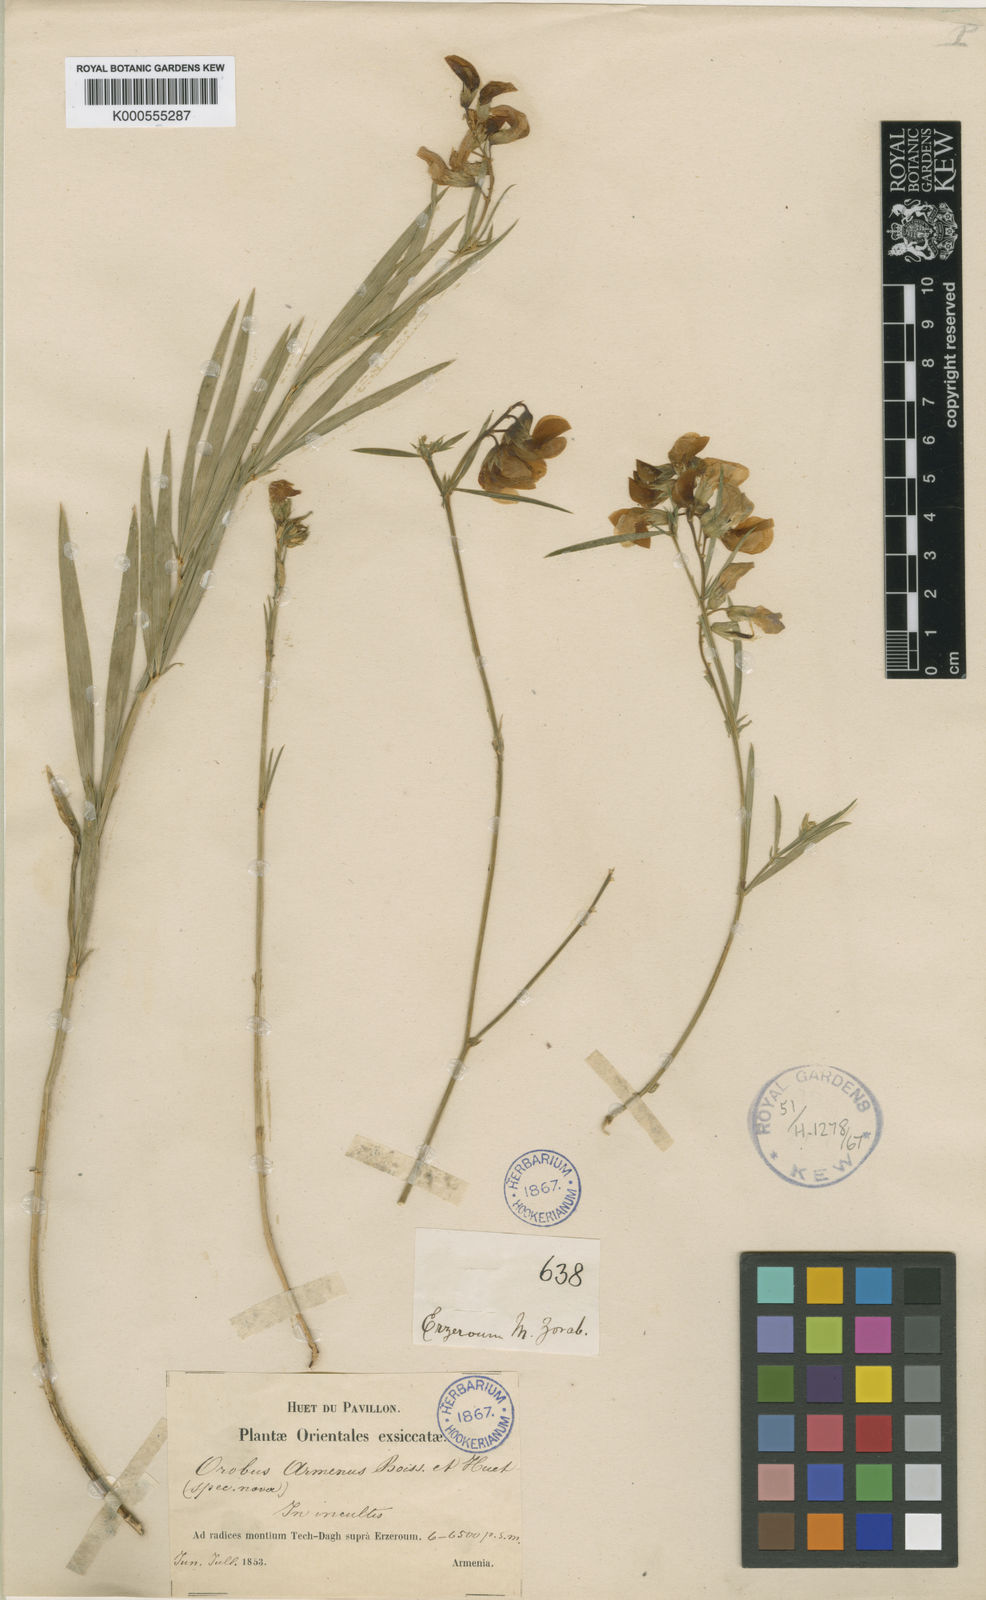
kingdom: Plantae
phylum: Tracheophyta
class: Magnoliopsida
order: Fabales
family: Fabaceae
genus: Lathyrus
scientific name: Lathyrus armenus
